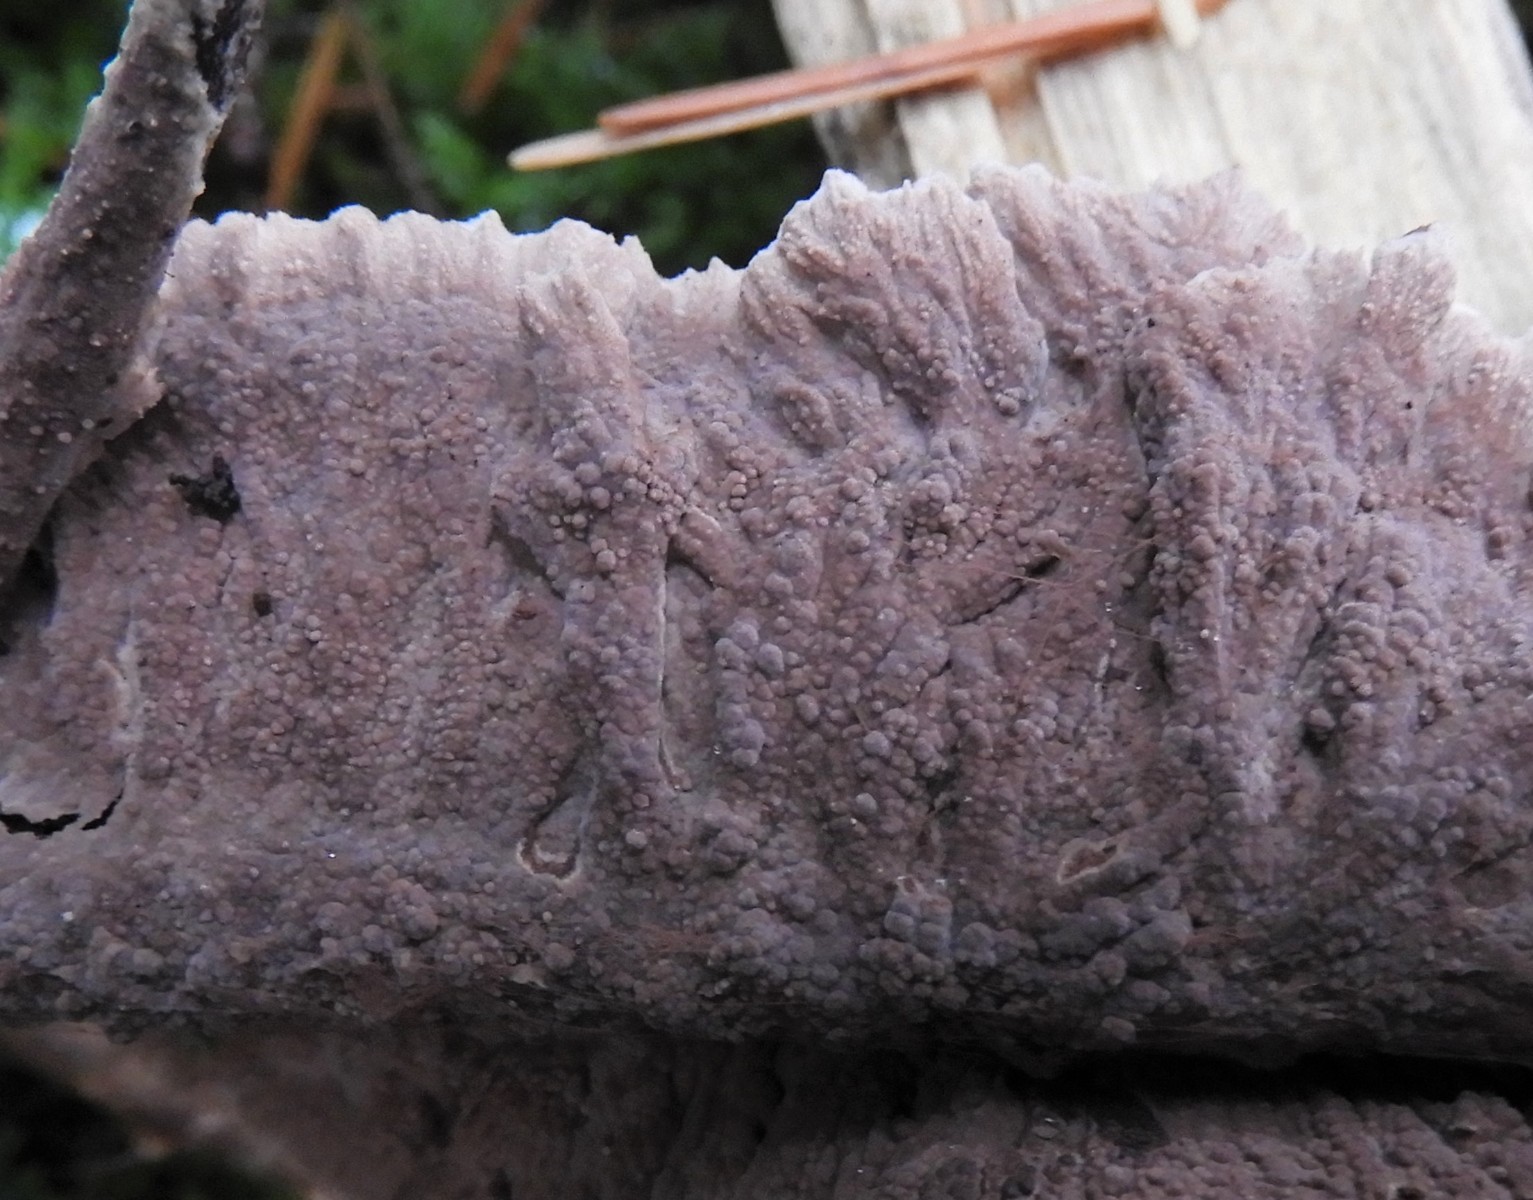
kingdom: Fungi
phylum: Basidiomycota
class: Agaricomycetes
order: Thelephorales
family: Thelephoraceae
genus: Thelephora
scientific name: Thelephora terrestris
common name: fliget frynsesvamp
